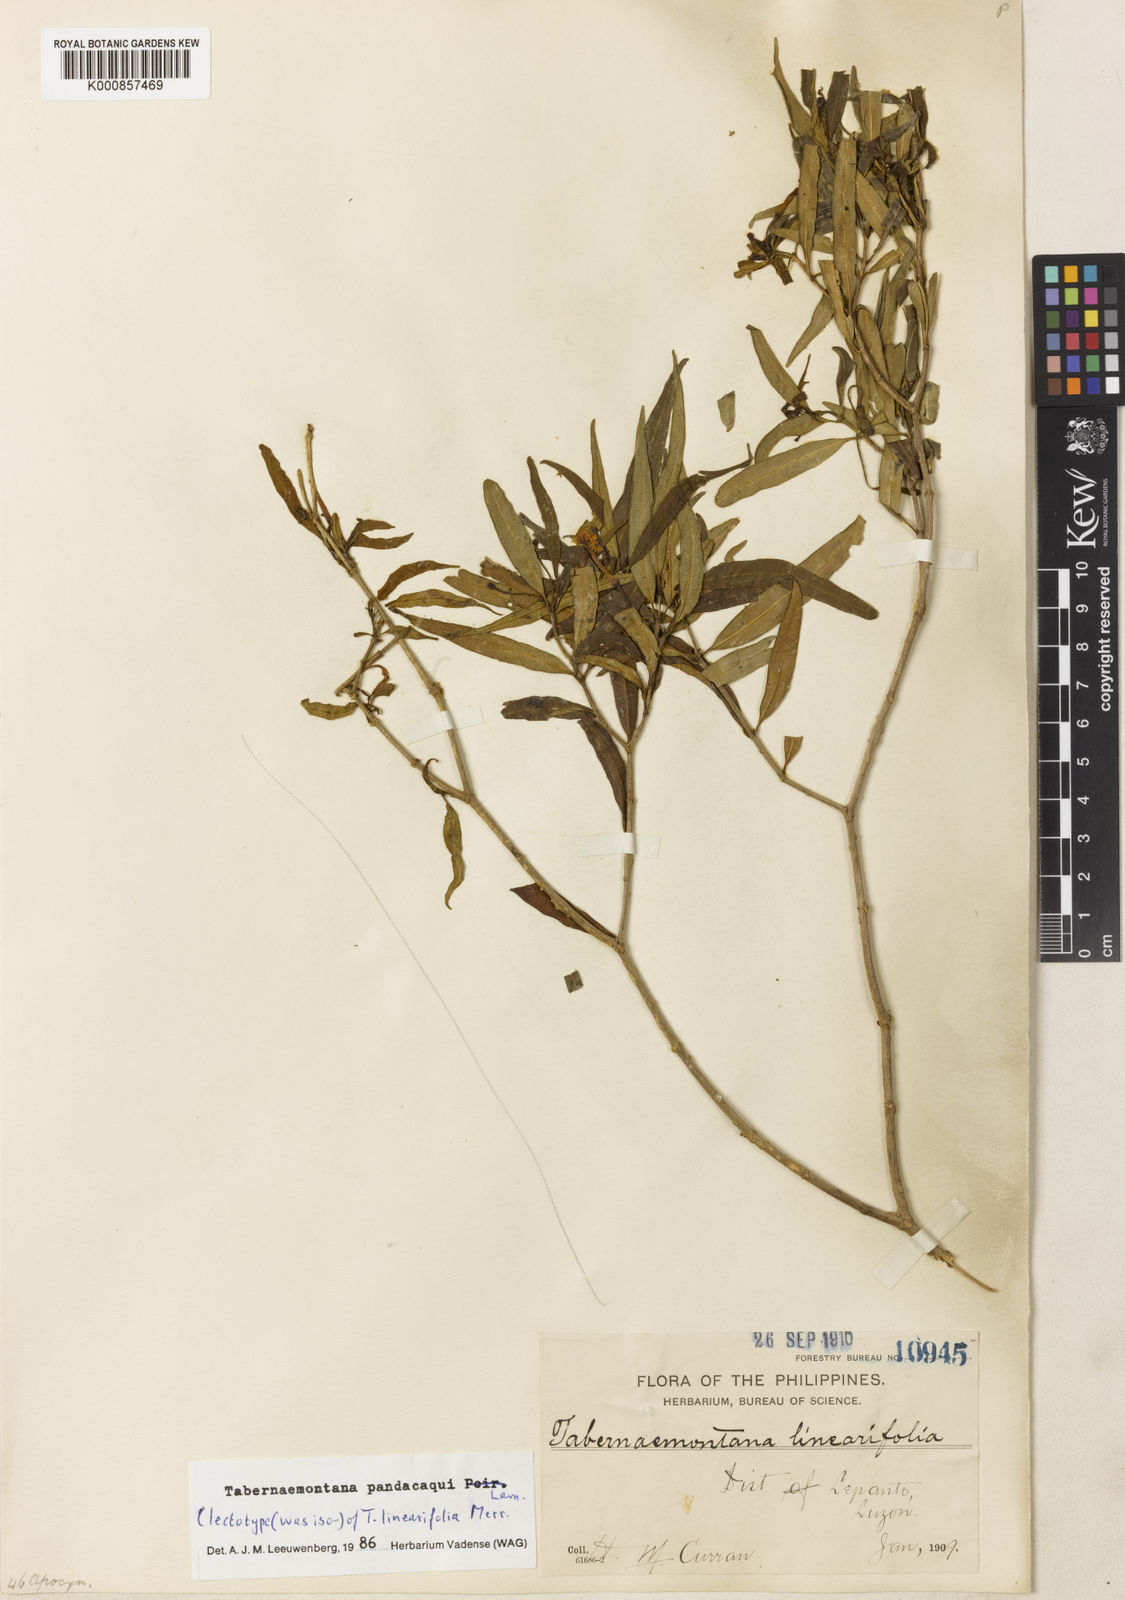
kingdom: Plantae
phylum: Tracheophyta
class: Magnoliopsida
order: Gentianales
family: Apocynaceae
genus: Tabernaemontana
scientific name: Tabernaemontana
